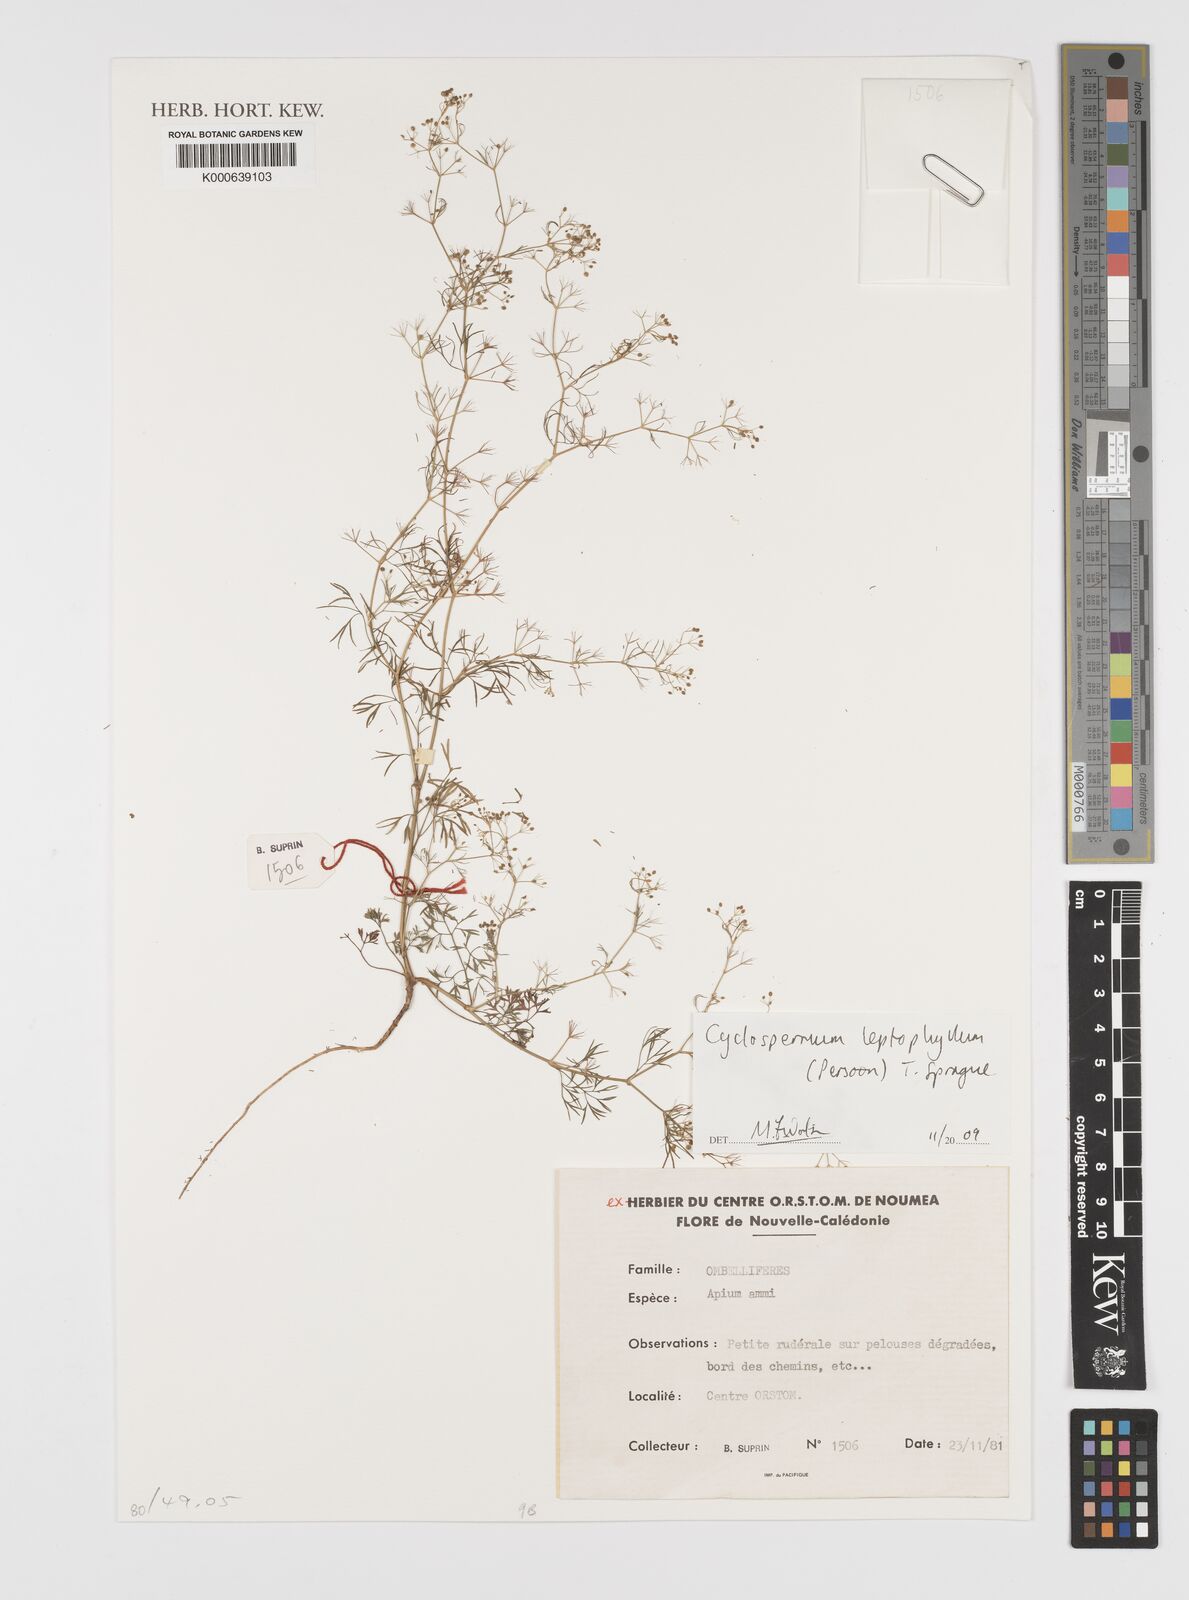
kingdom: Plantae
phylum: Tracheophyta
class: Magnoliopsida
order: Apiales
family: Apiaceae
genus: Cyclospermum
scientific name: Cyclospermum
